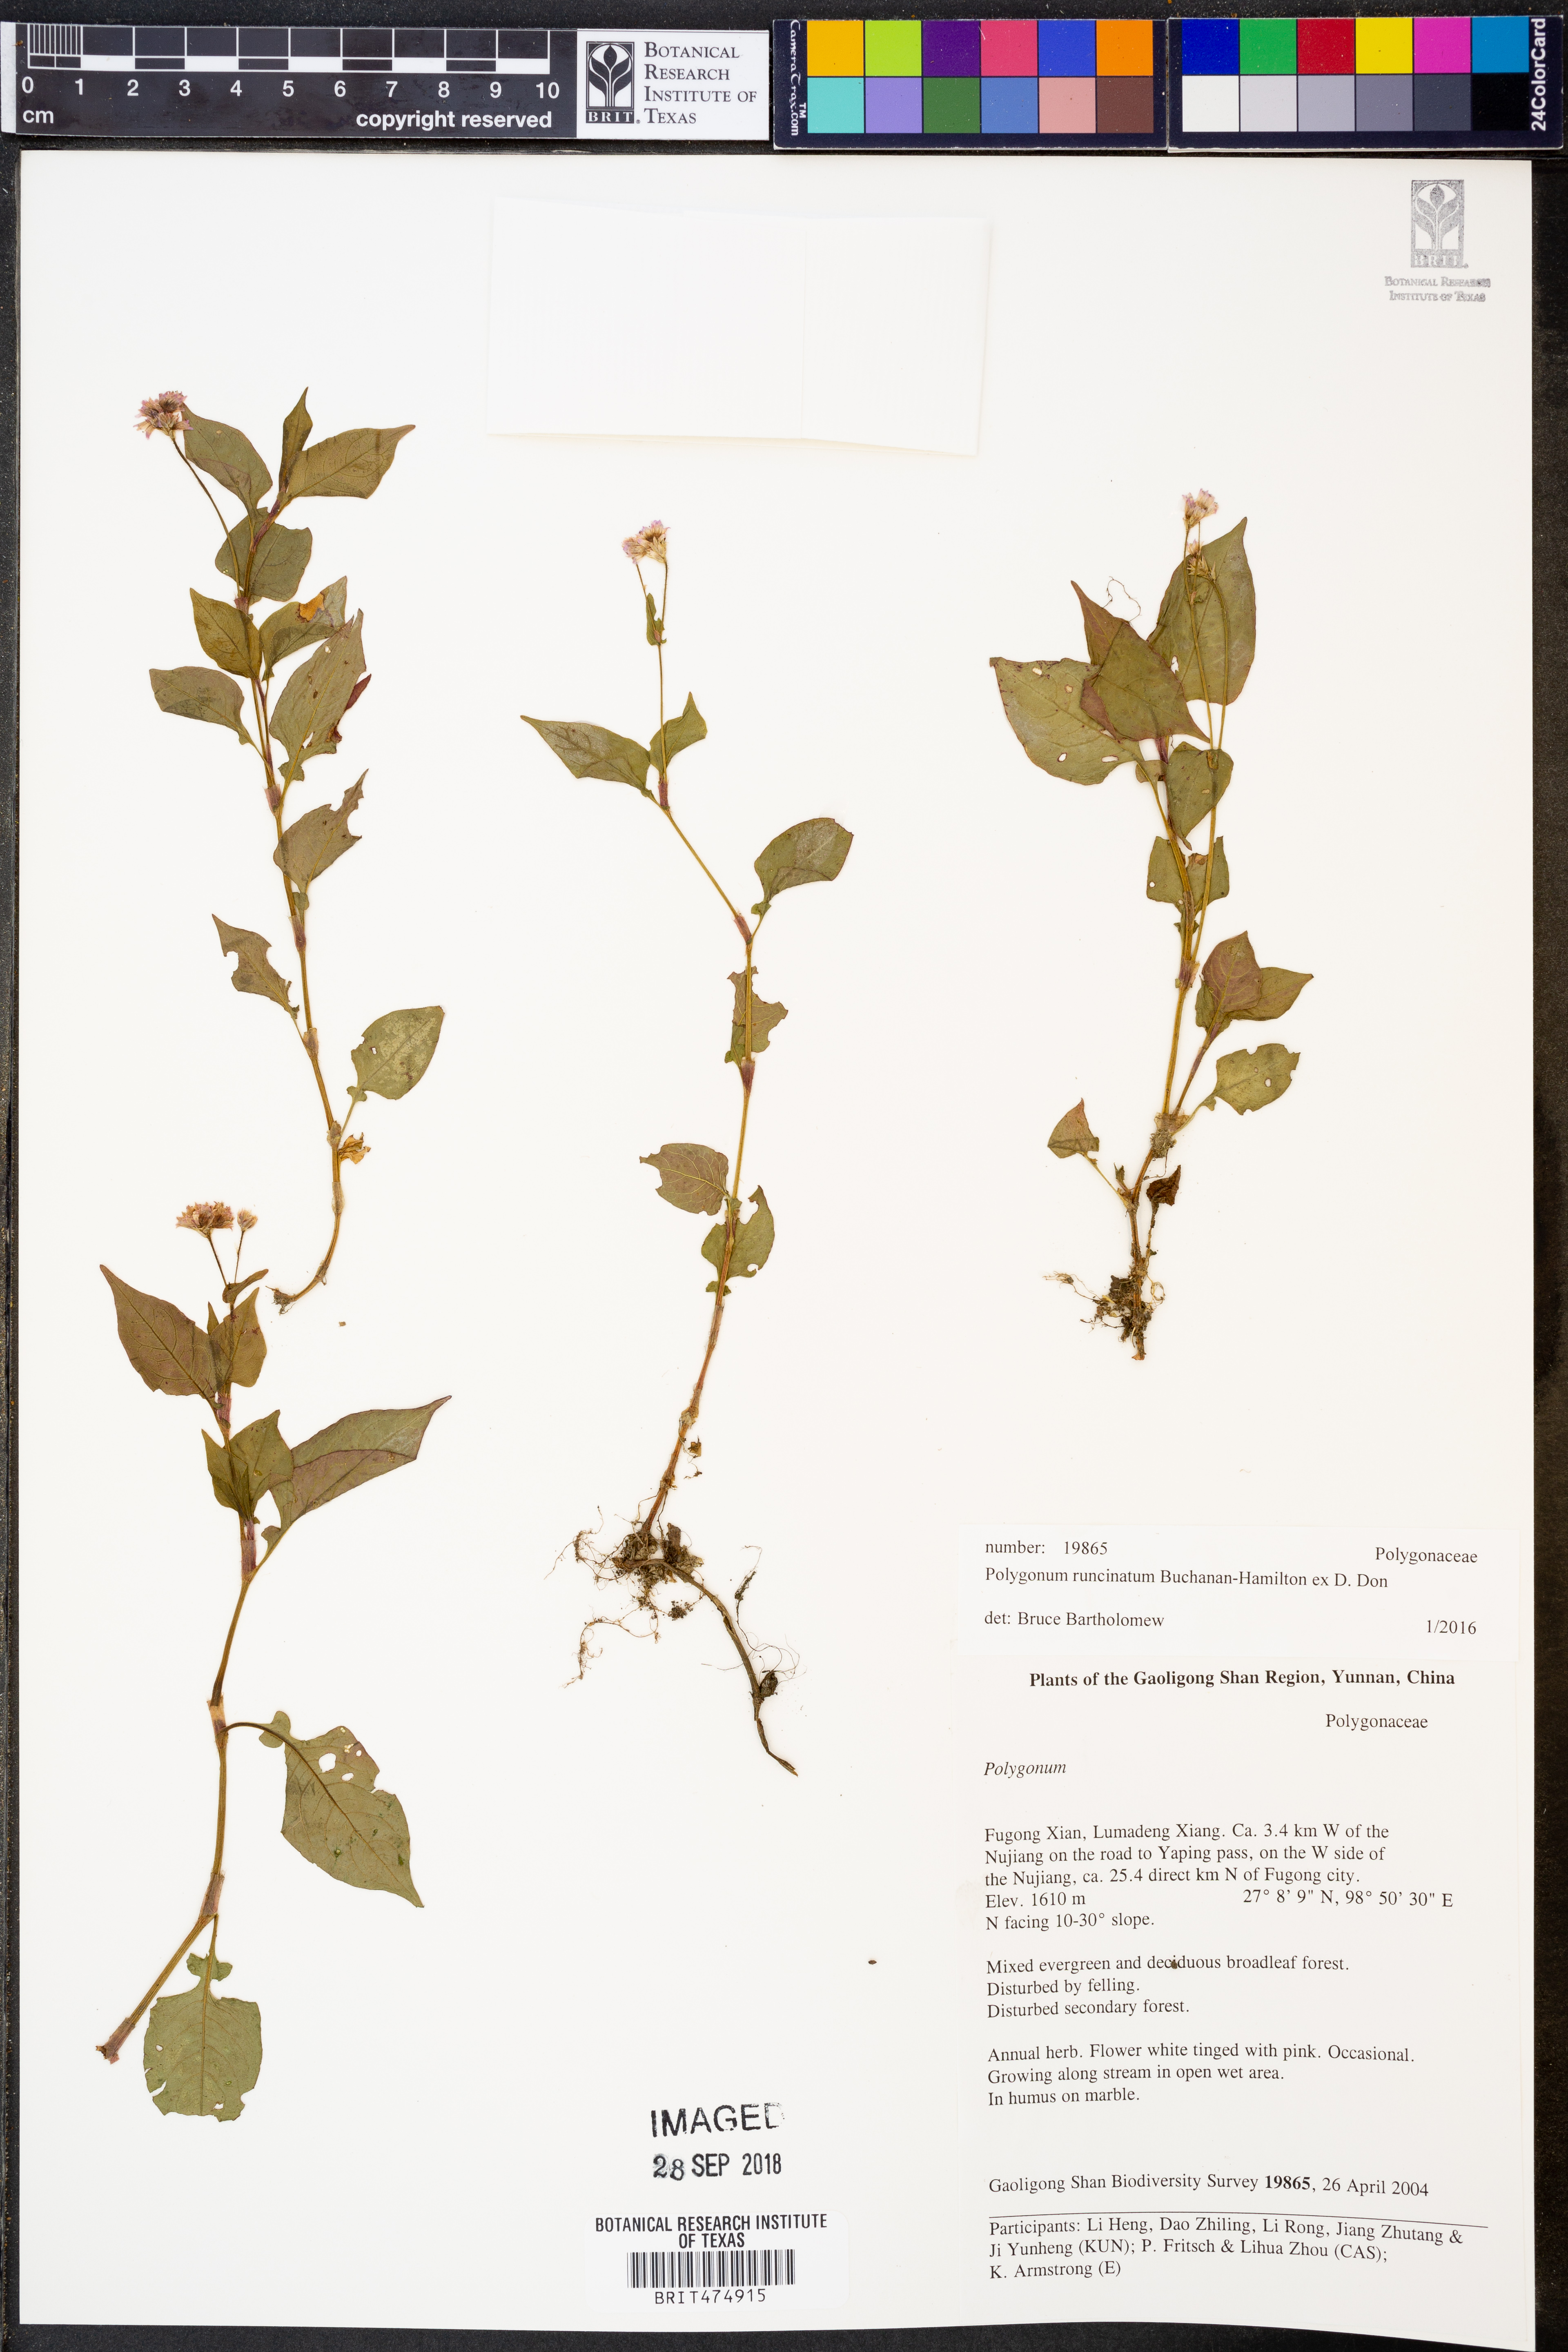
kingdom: Plantae
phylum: Tracheophyta
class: Magnoliopsida
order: Caryophyllales
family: Polygonaceae
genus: Persicaria
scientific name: Persicaria runcinata
